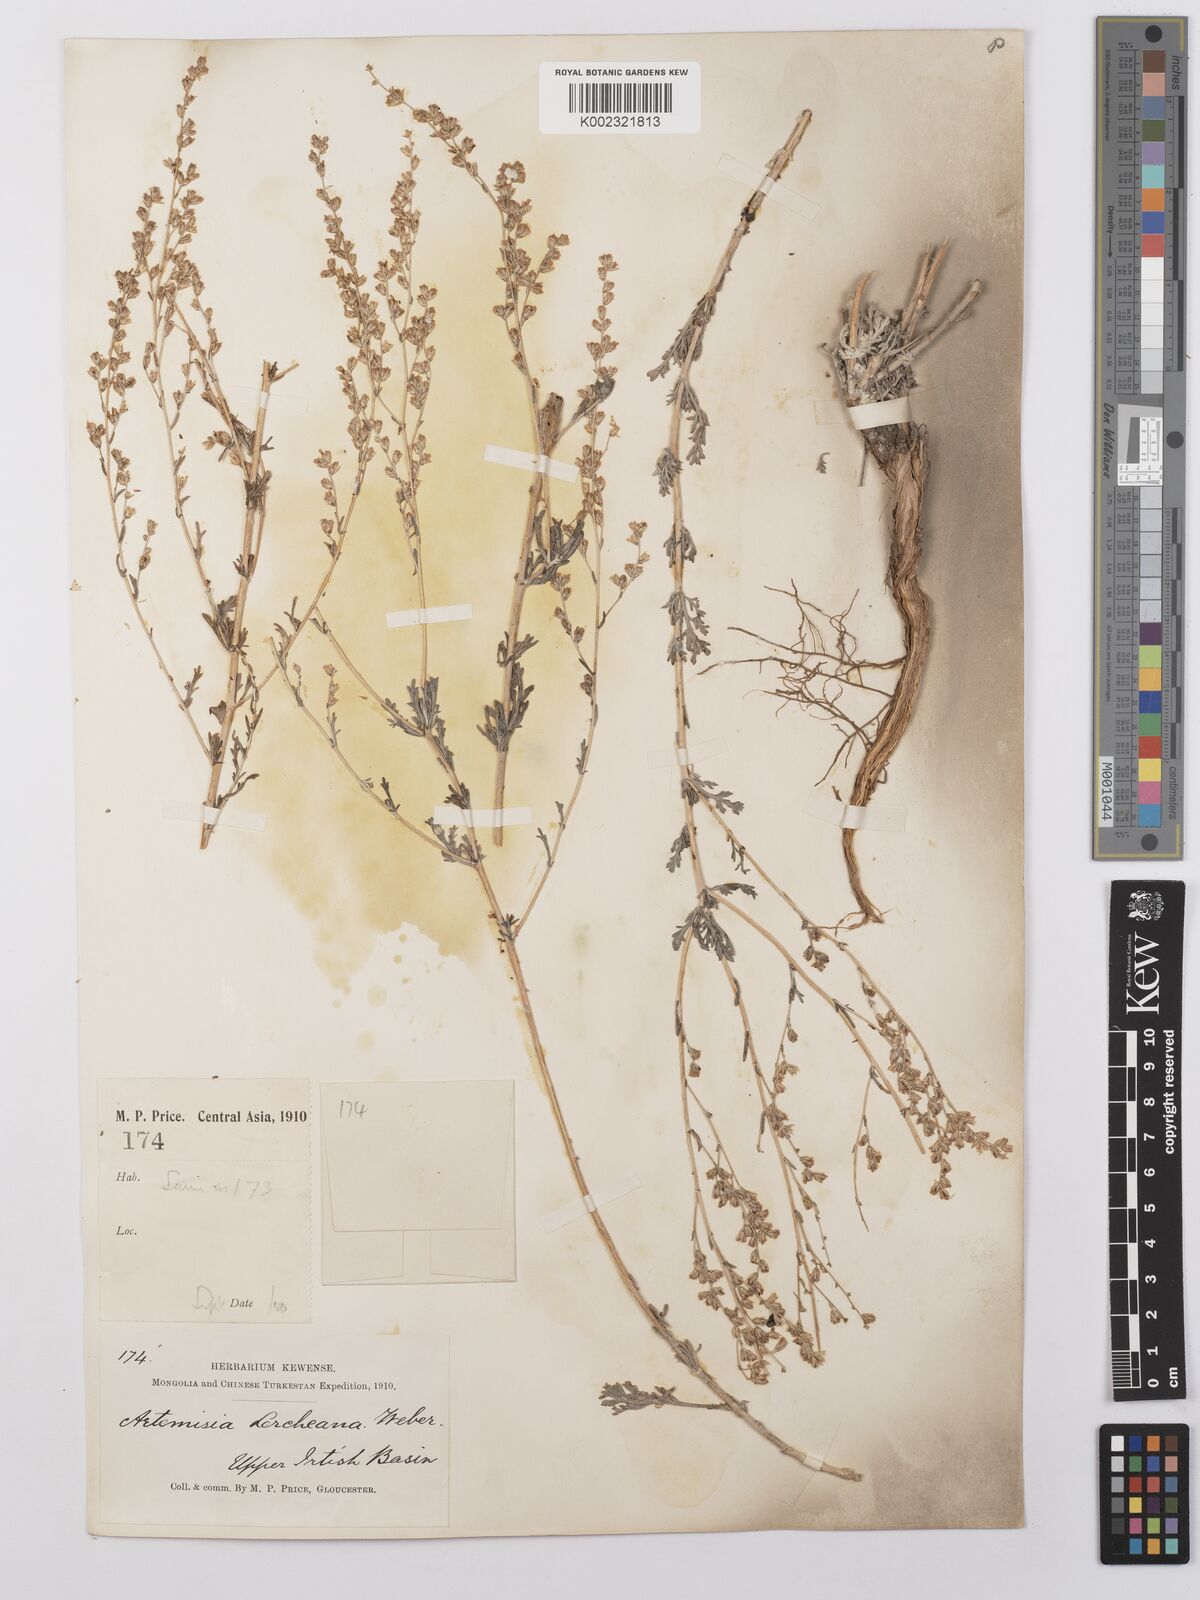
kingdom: Plantae
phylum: Tracheophyta
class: Magnoliopsida
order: Asterales
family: Asteraceae
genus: Artemisia
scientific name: Artemisia lercheana
